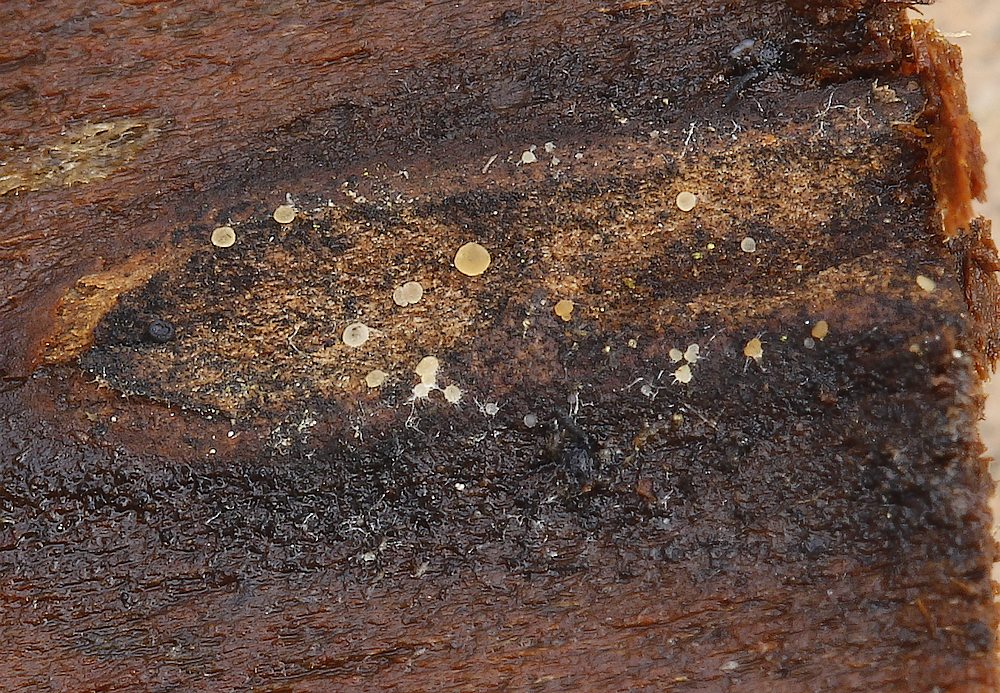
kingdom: Fungi
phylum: Ascomycota
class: Leotiomycetes
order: Helotiales
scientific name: Helotiales
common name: stilkskiveordenen
